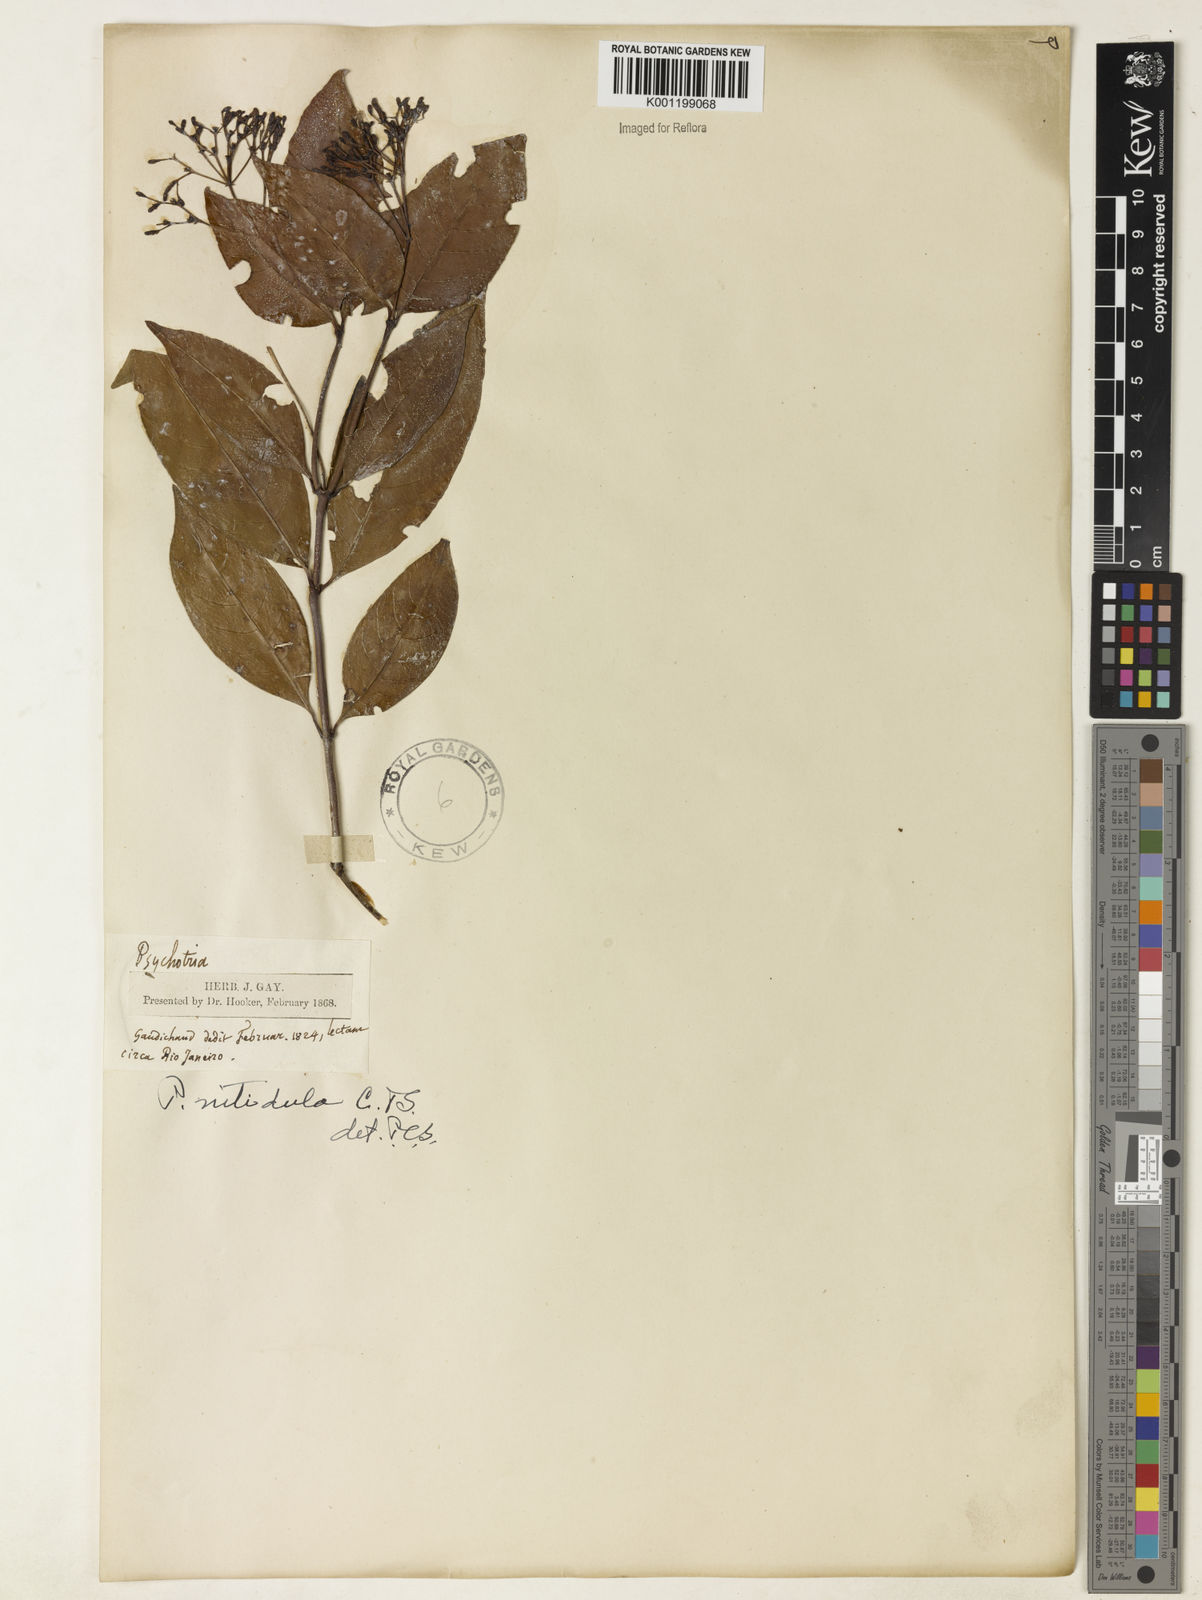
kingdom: Plantae
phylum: Tracheophyta
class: Magnoliopsida
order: Gentianales
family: Rubiaceae
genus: Psychotria
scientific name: Psychotria leiocarpa
